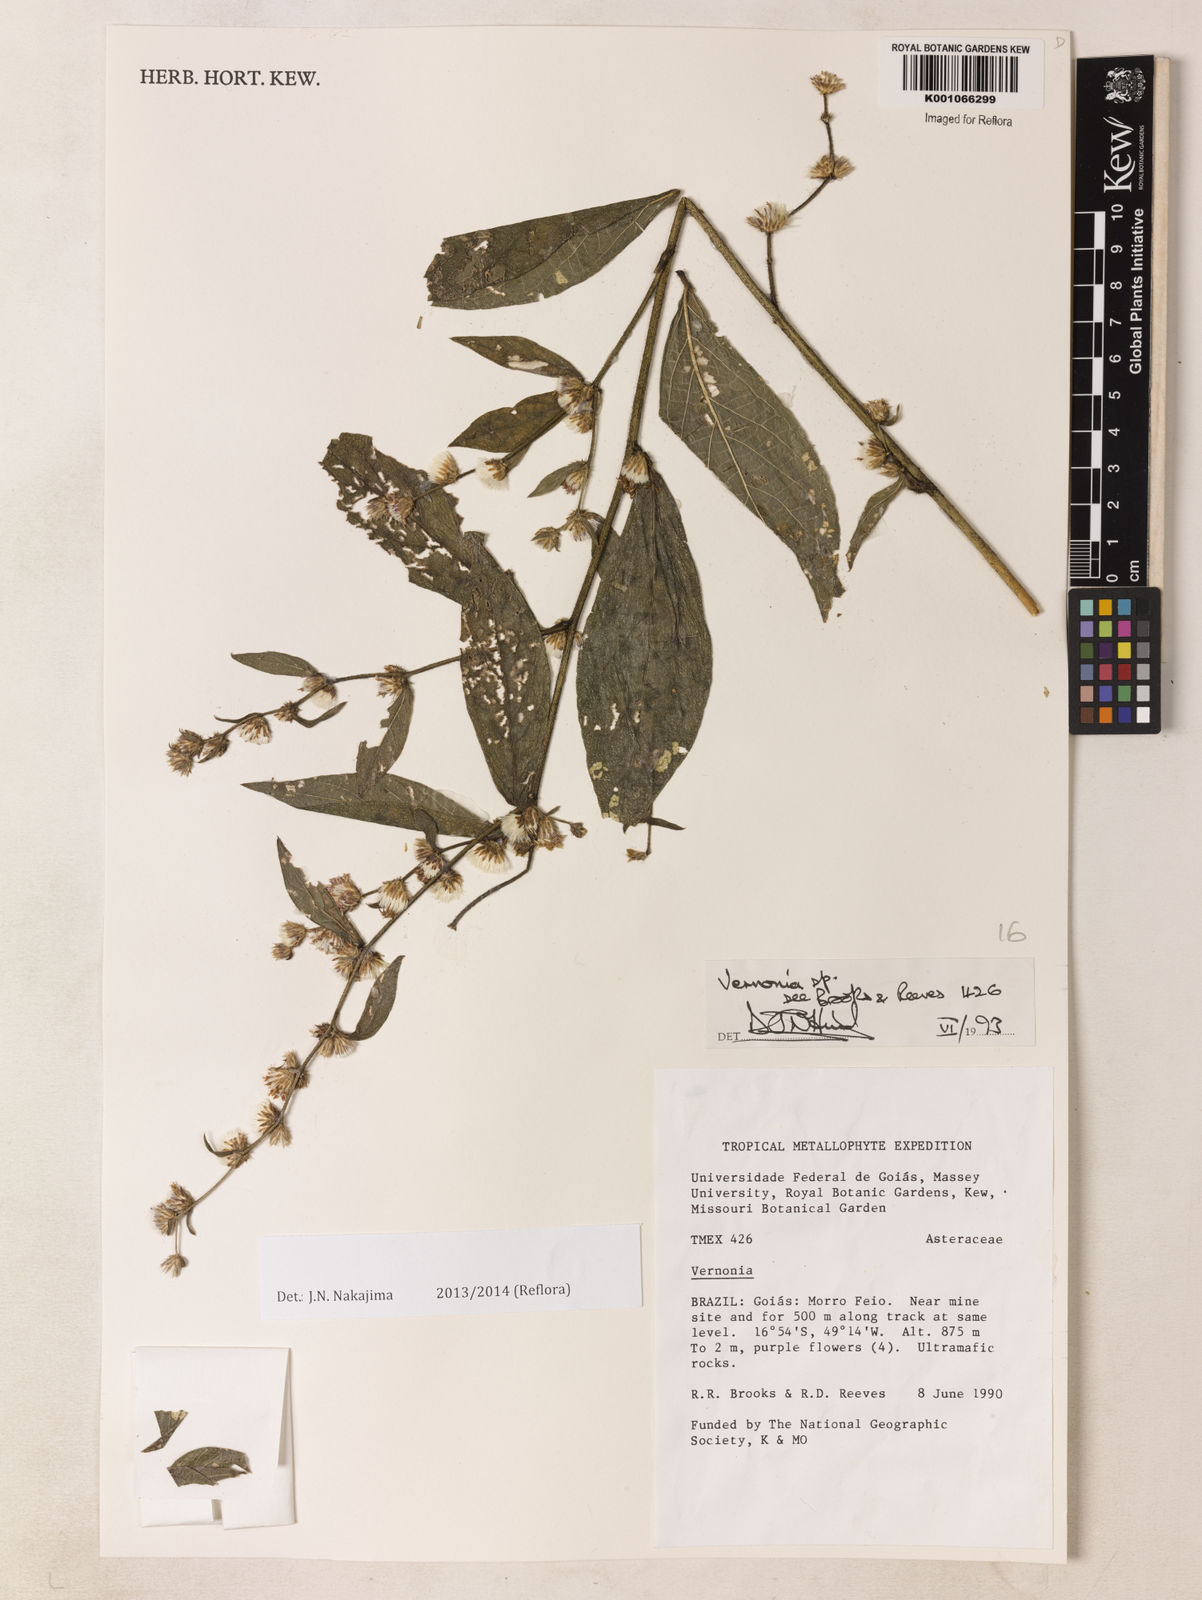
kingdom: Plantae
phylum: Tracheophyta
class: Magnoliopsida
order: Asterales
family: Asteraceae
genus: Lepidaploa
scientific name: Lepidaploa salzmannii
